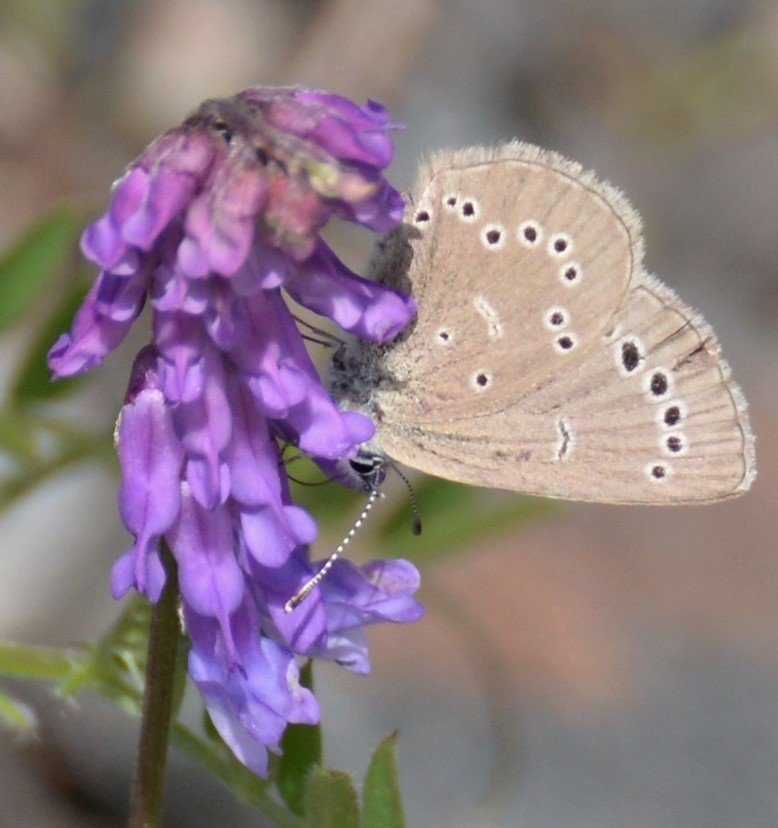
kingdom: Animalia
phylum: Arthropoda
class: Insecta
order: Lepidoptera
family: Lycaenidae
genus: Glaucopsyche
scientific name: Glaucopsyche lygdamus
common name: Silvery Blue
